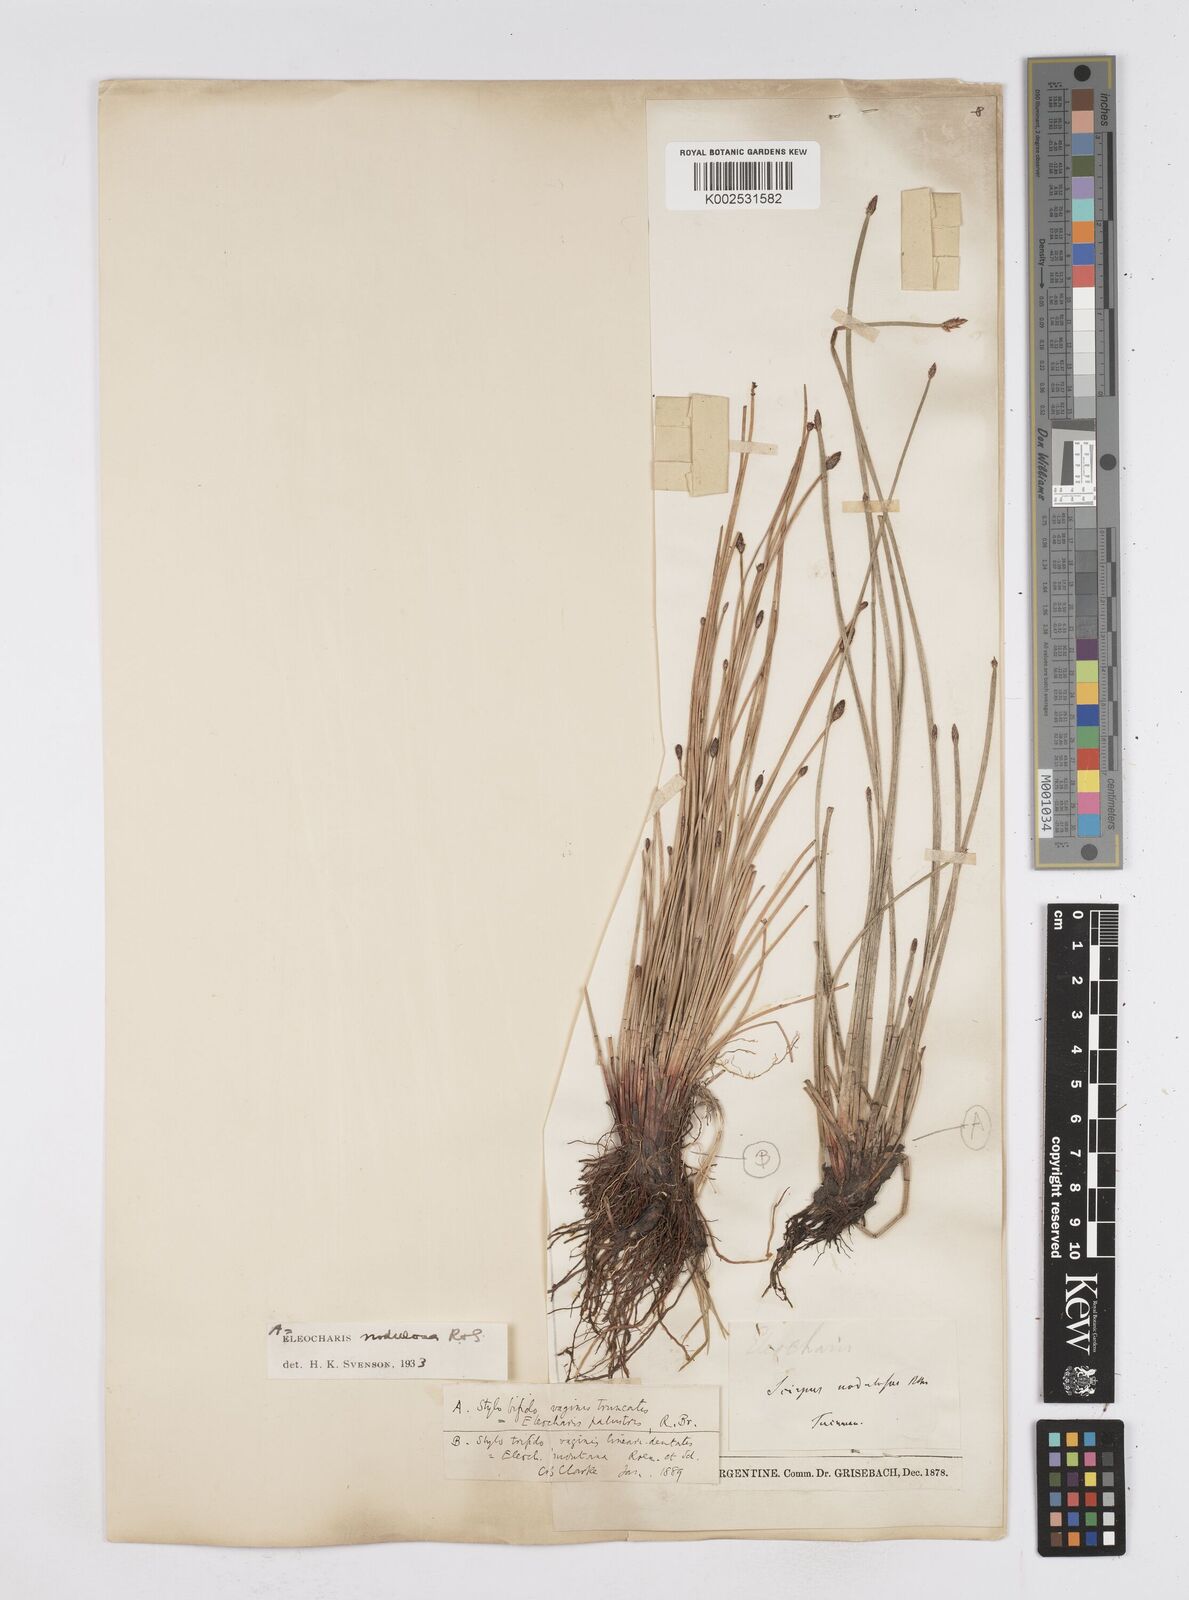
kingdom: Plantae
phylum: Tracheophyta
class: Liliopsida
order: Poales
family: Cyperaceae
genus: Eleocharis
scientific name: Eleocharis montana
